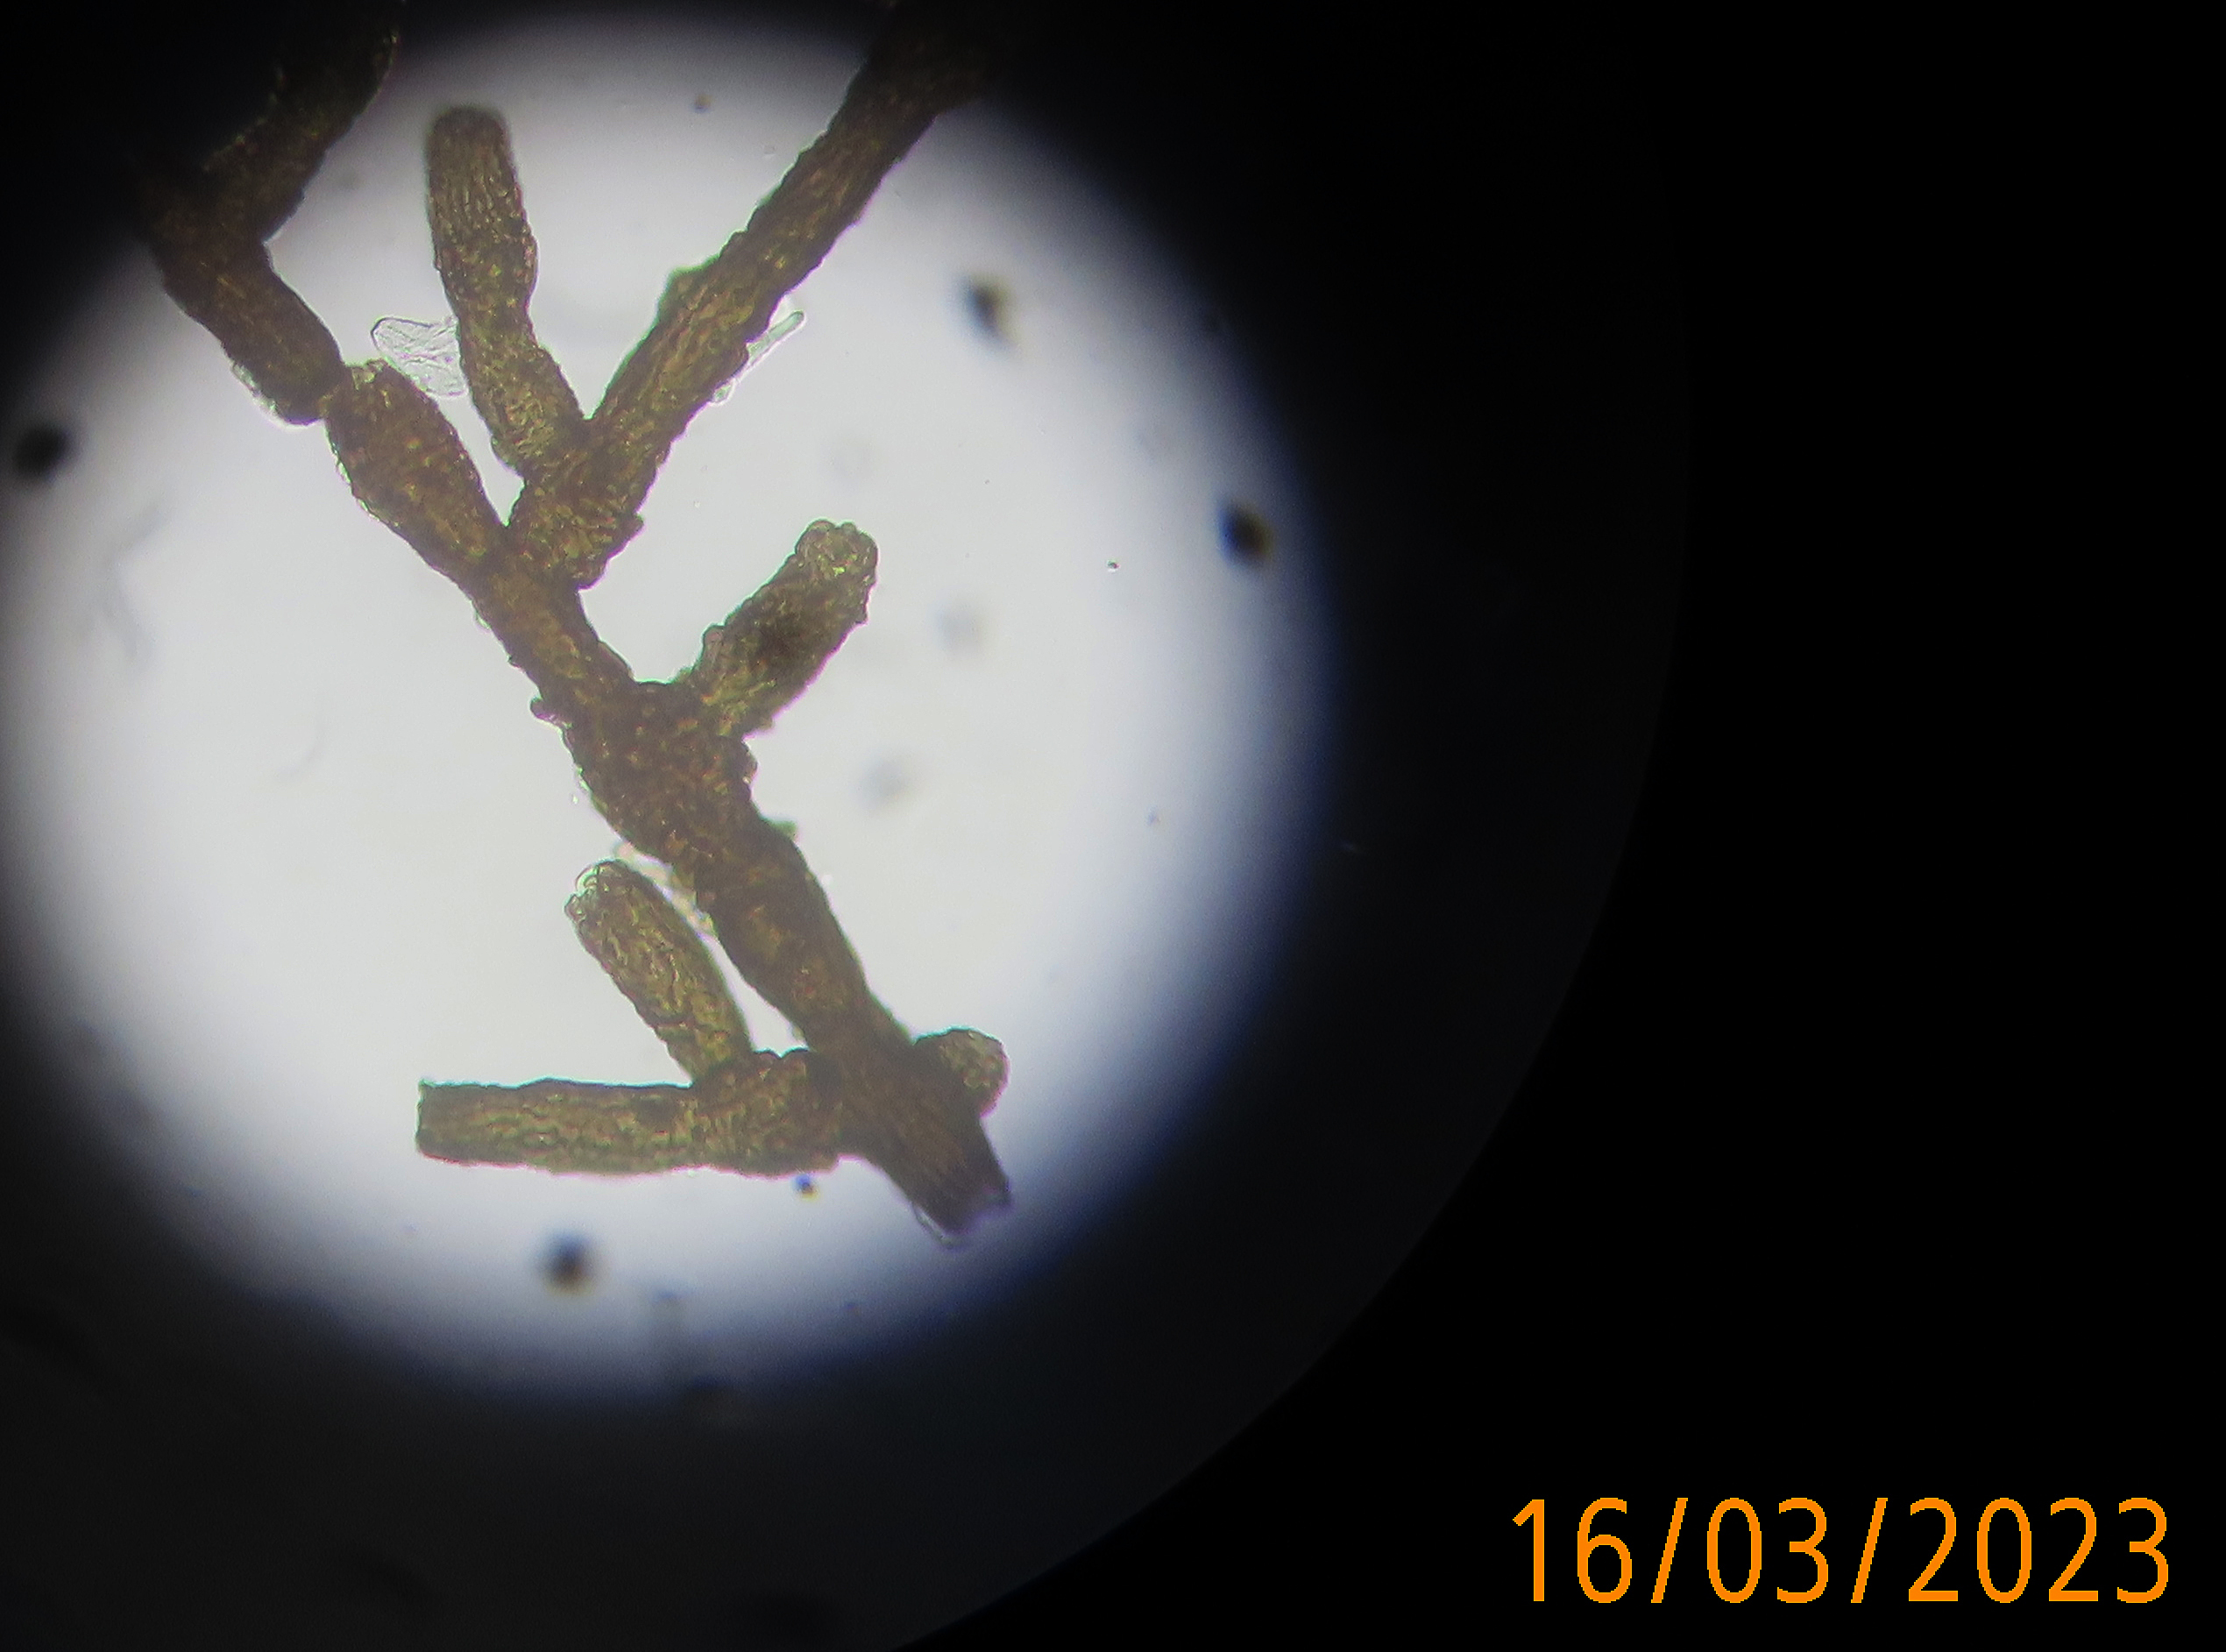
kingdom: Fungi
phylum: Ascomycota
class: Dothideomycetes
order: Capnodiales
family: Cystocoleaceae
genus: Cystocoleus
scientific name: Cystocoleus ebeneus
